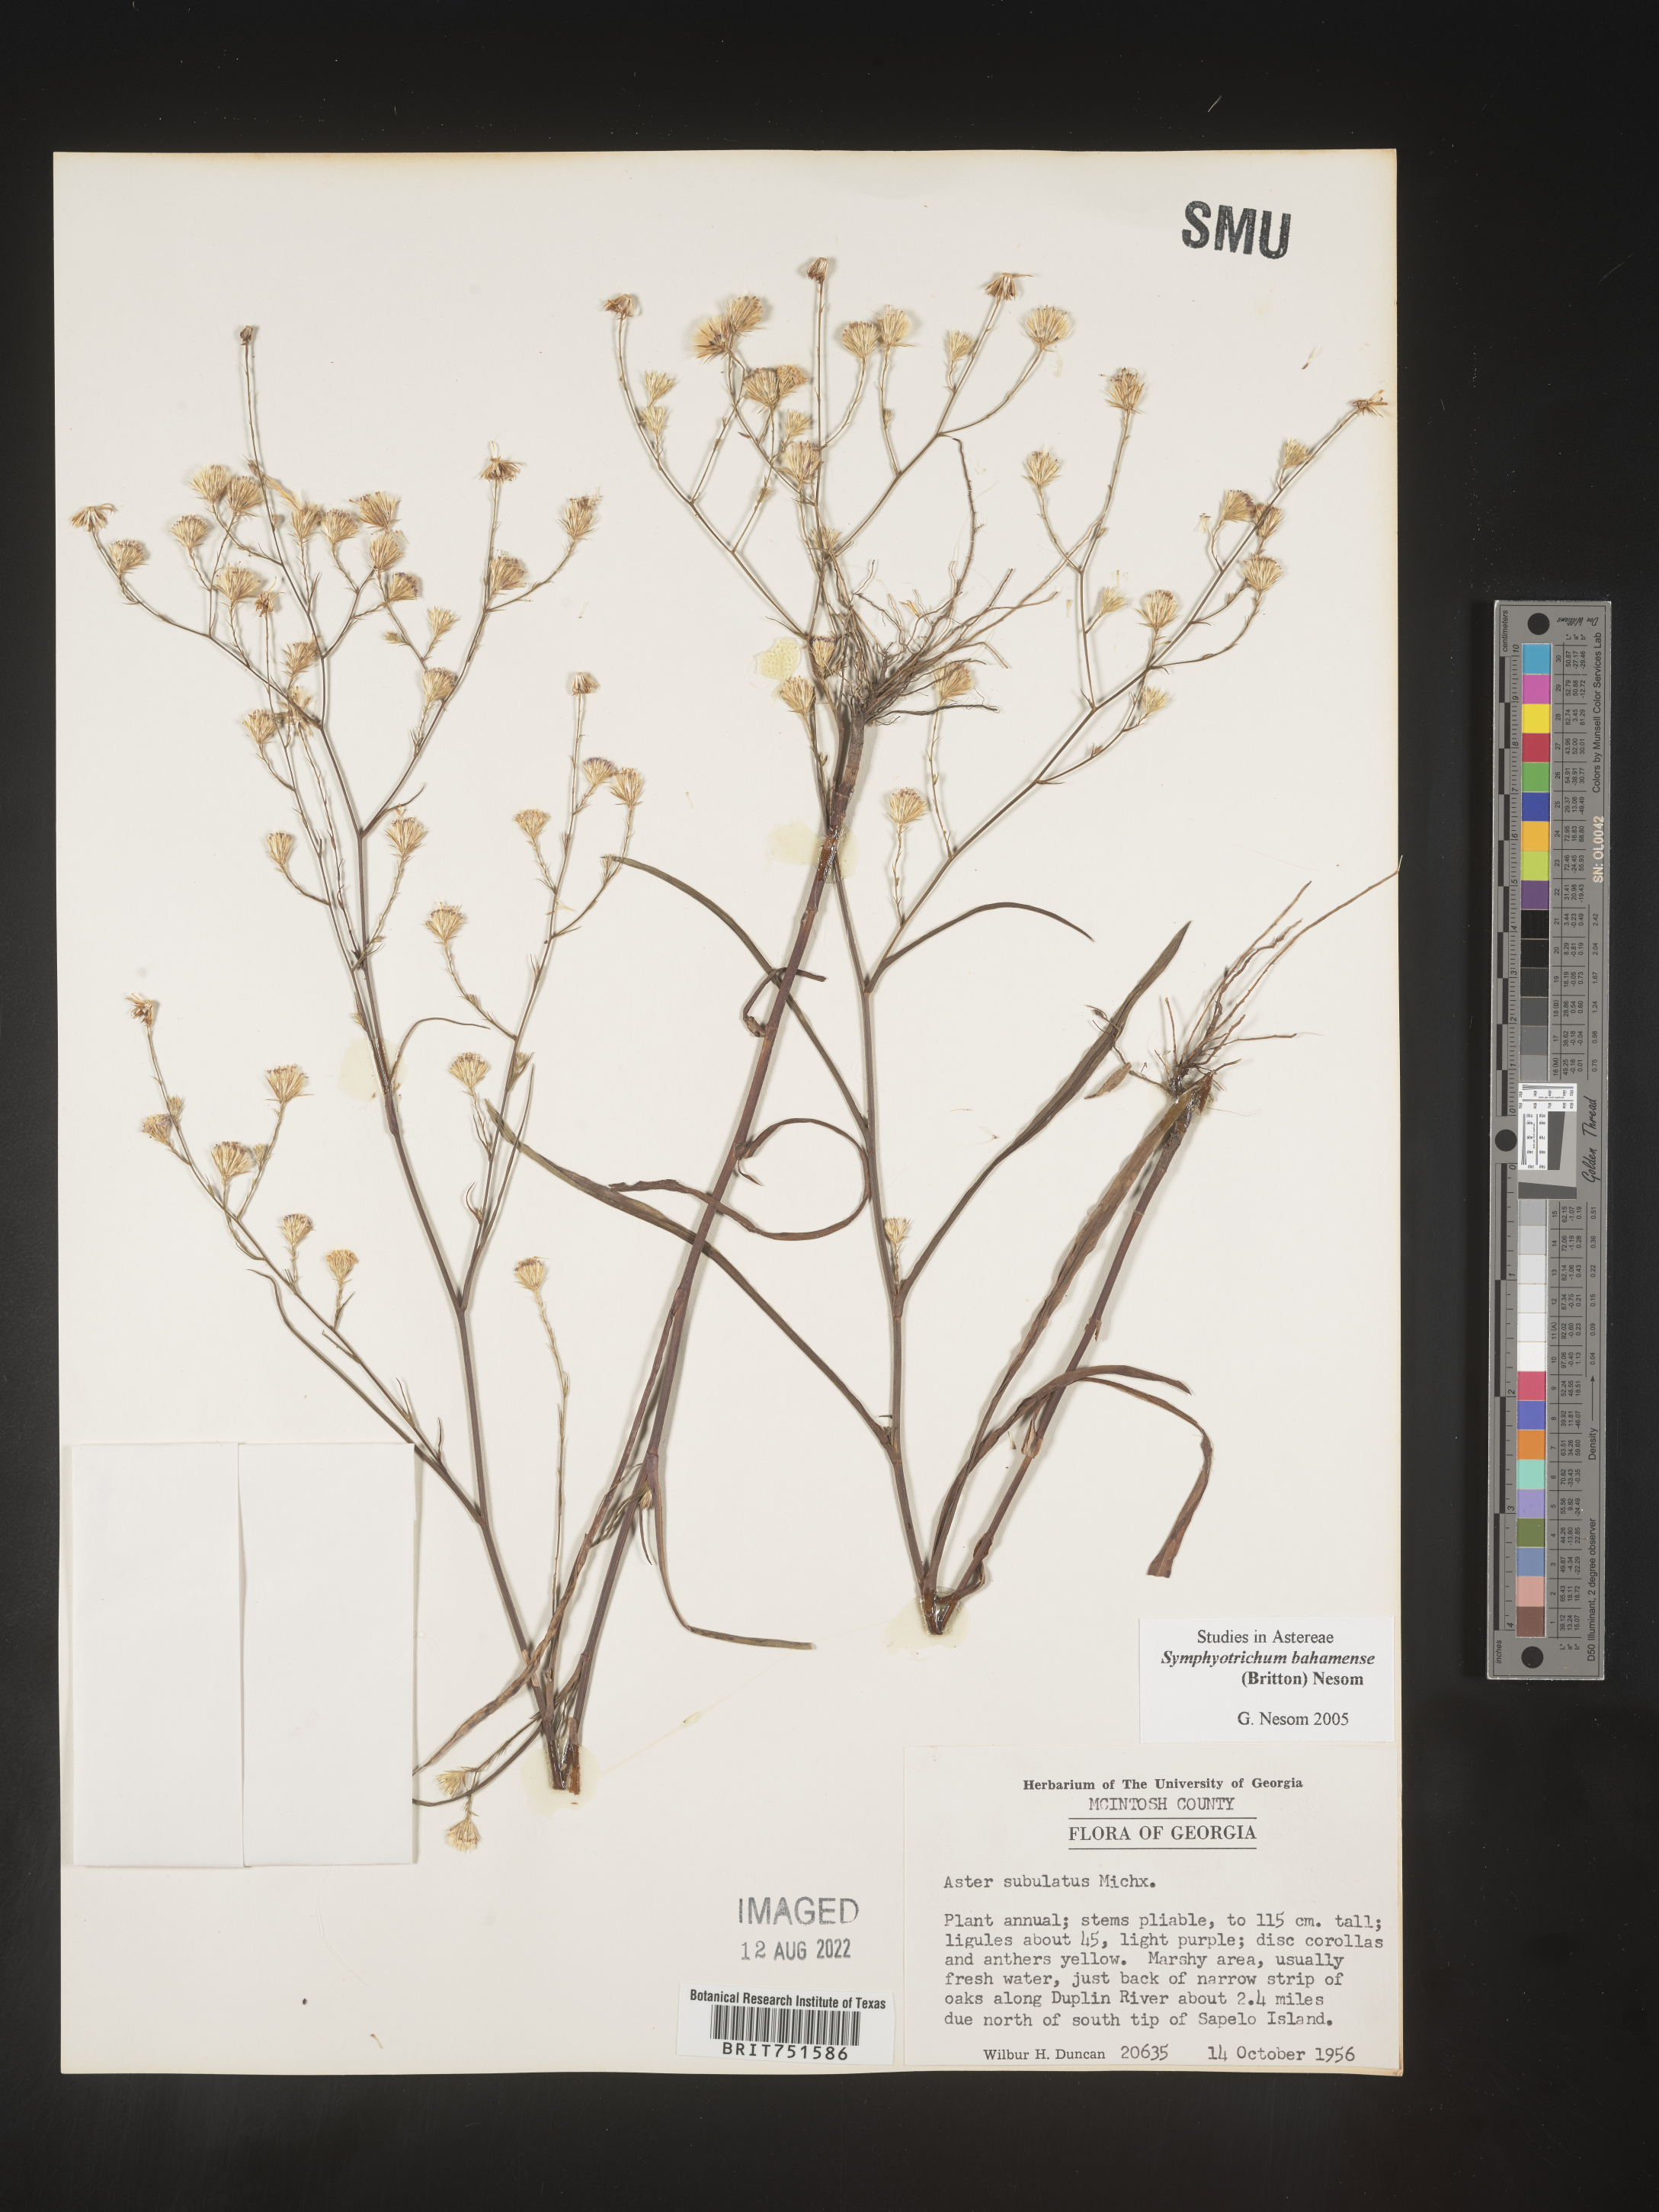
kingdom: Plantae
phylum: Tracheophyta
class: Magnoliopsida
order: Asterales
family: Asteraceae
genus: Symphyotrichum
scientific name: Symphyotrichum subulatum
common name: Annual saltmarsh aster
